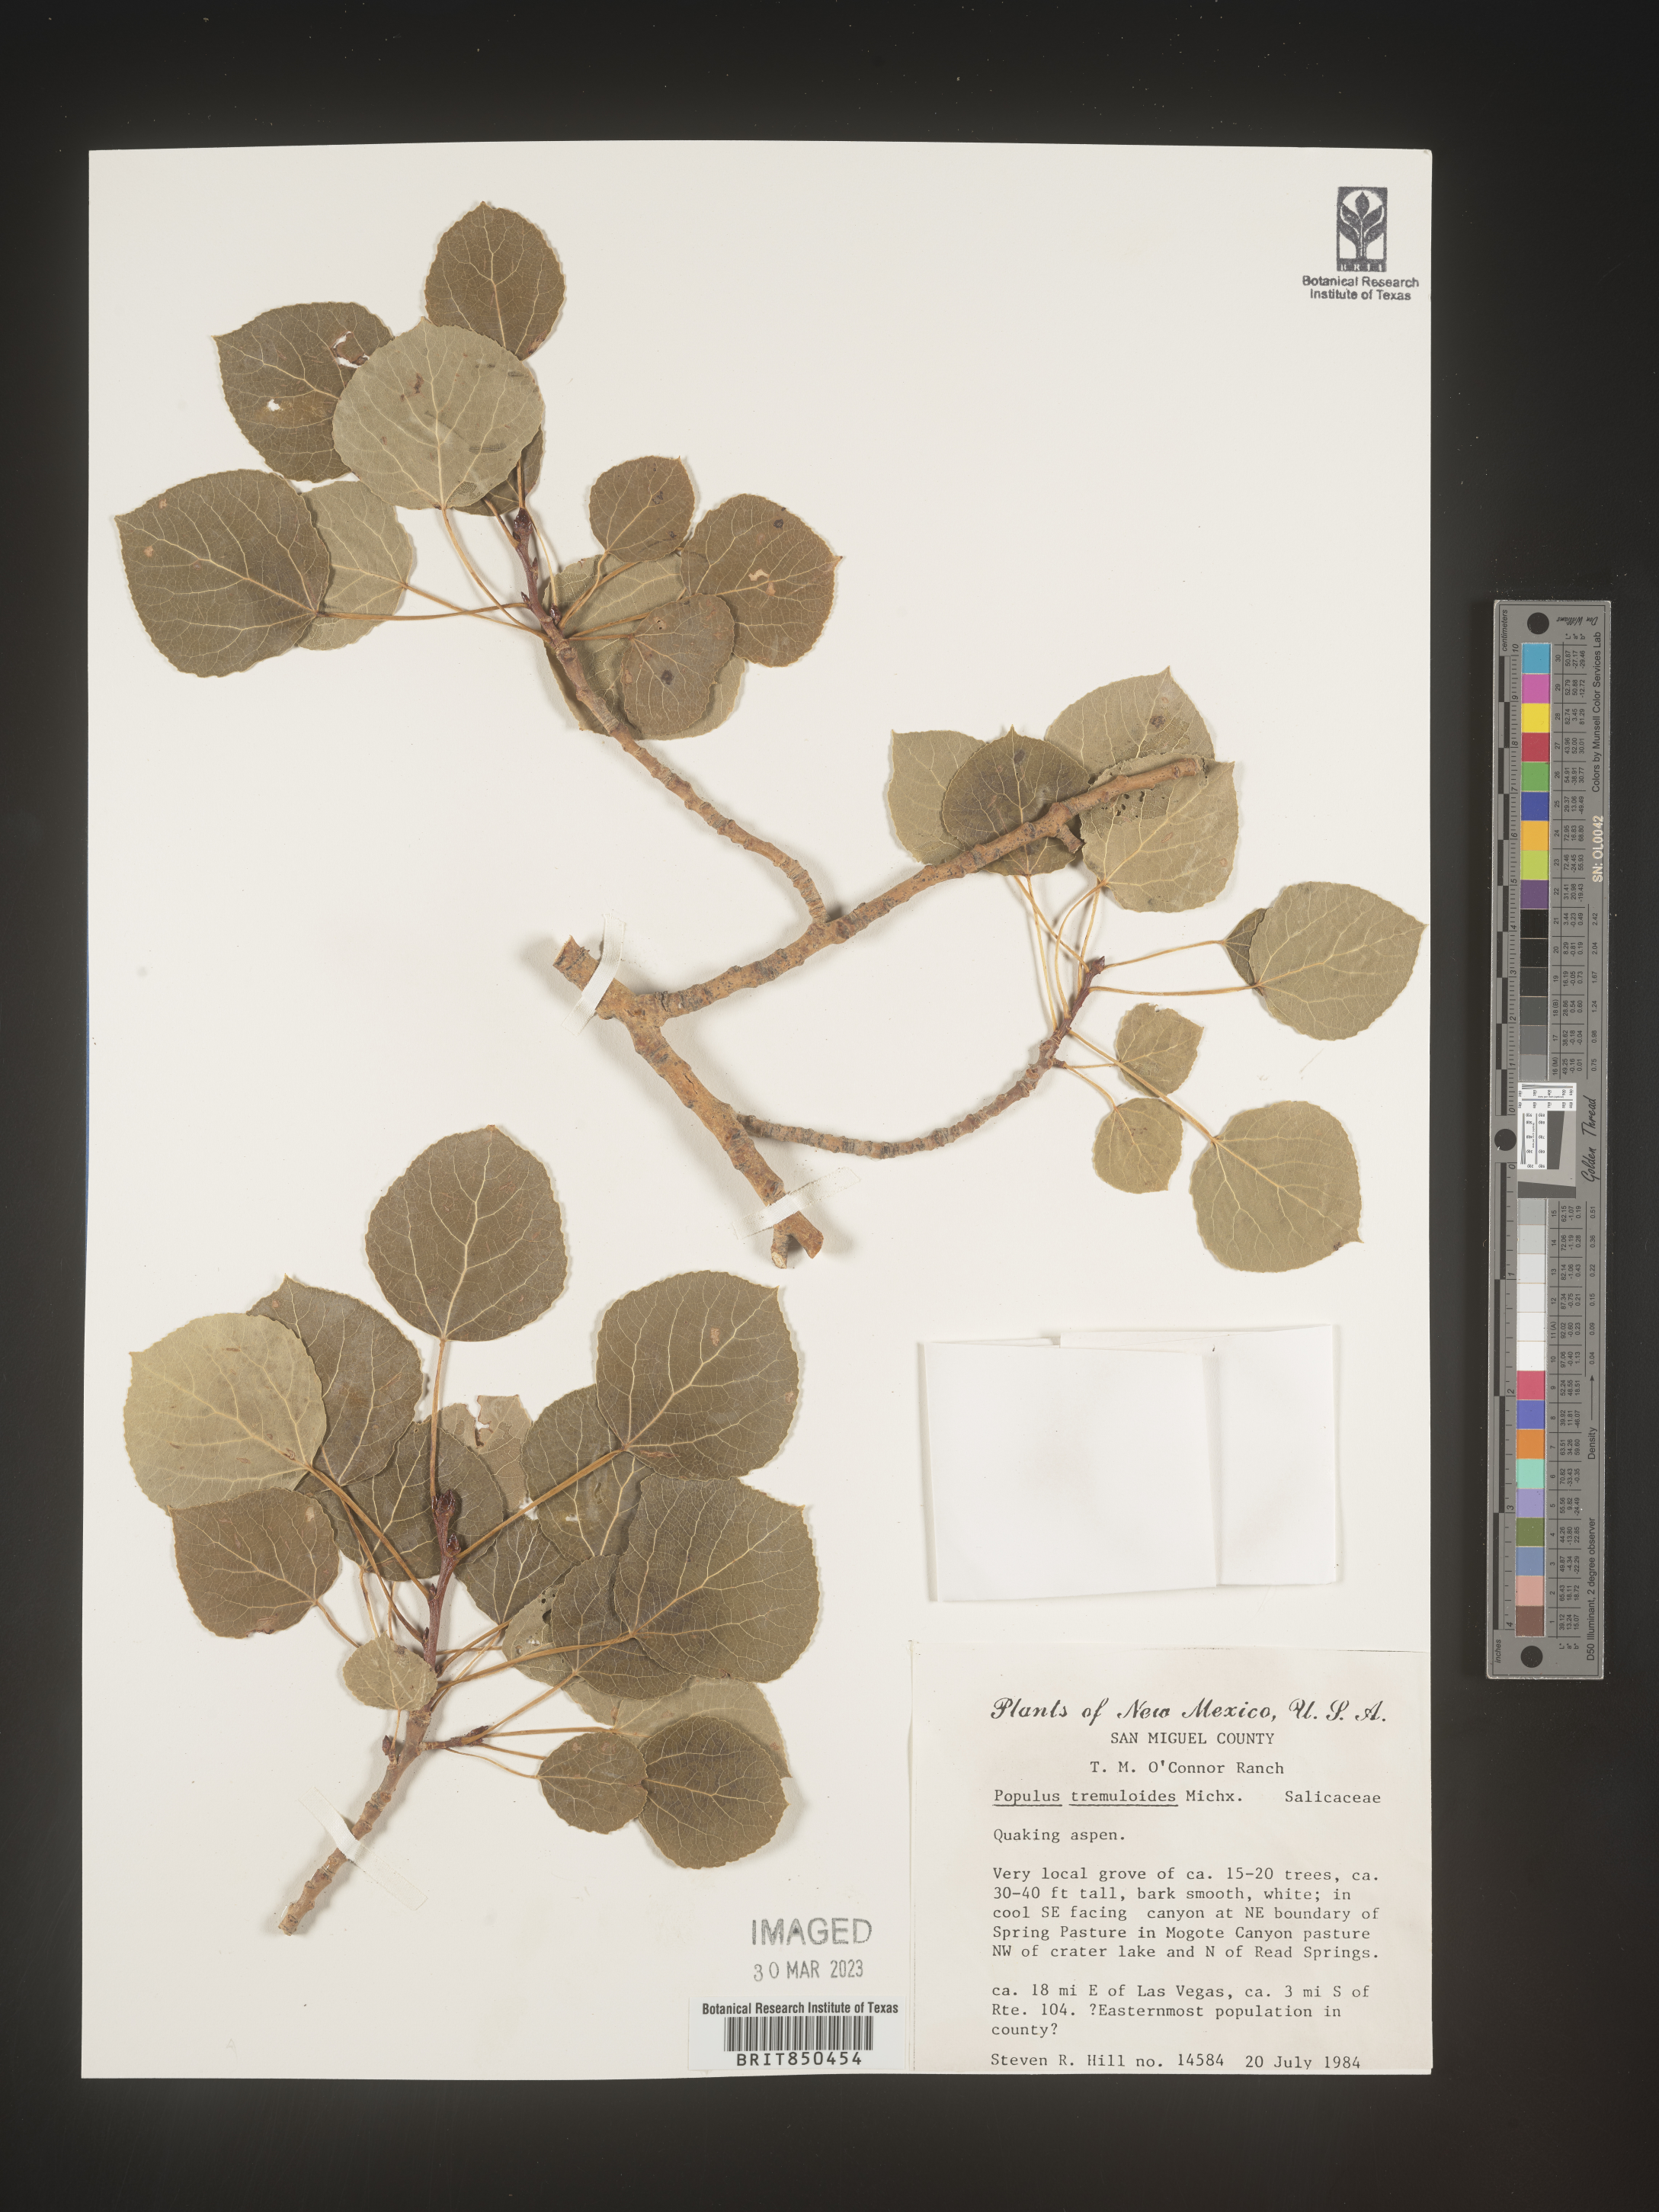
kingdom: Plantae
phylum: Tracheophyta
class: Magnoliopsida
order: Malpighiales
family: Salicaceae
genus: Populus
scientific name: Populus tremuloides
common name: Quaking aspen
